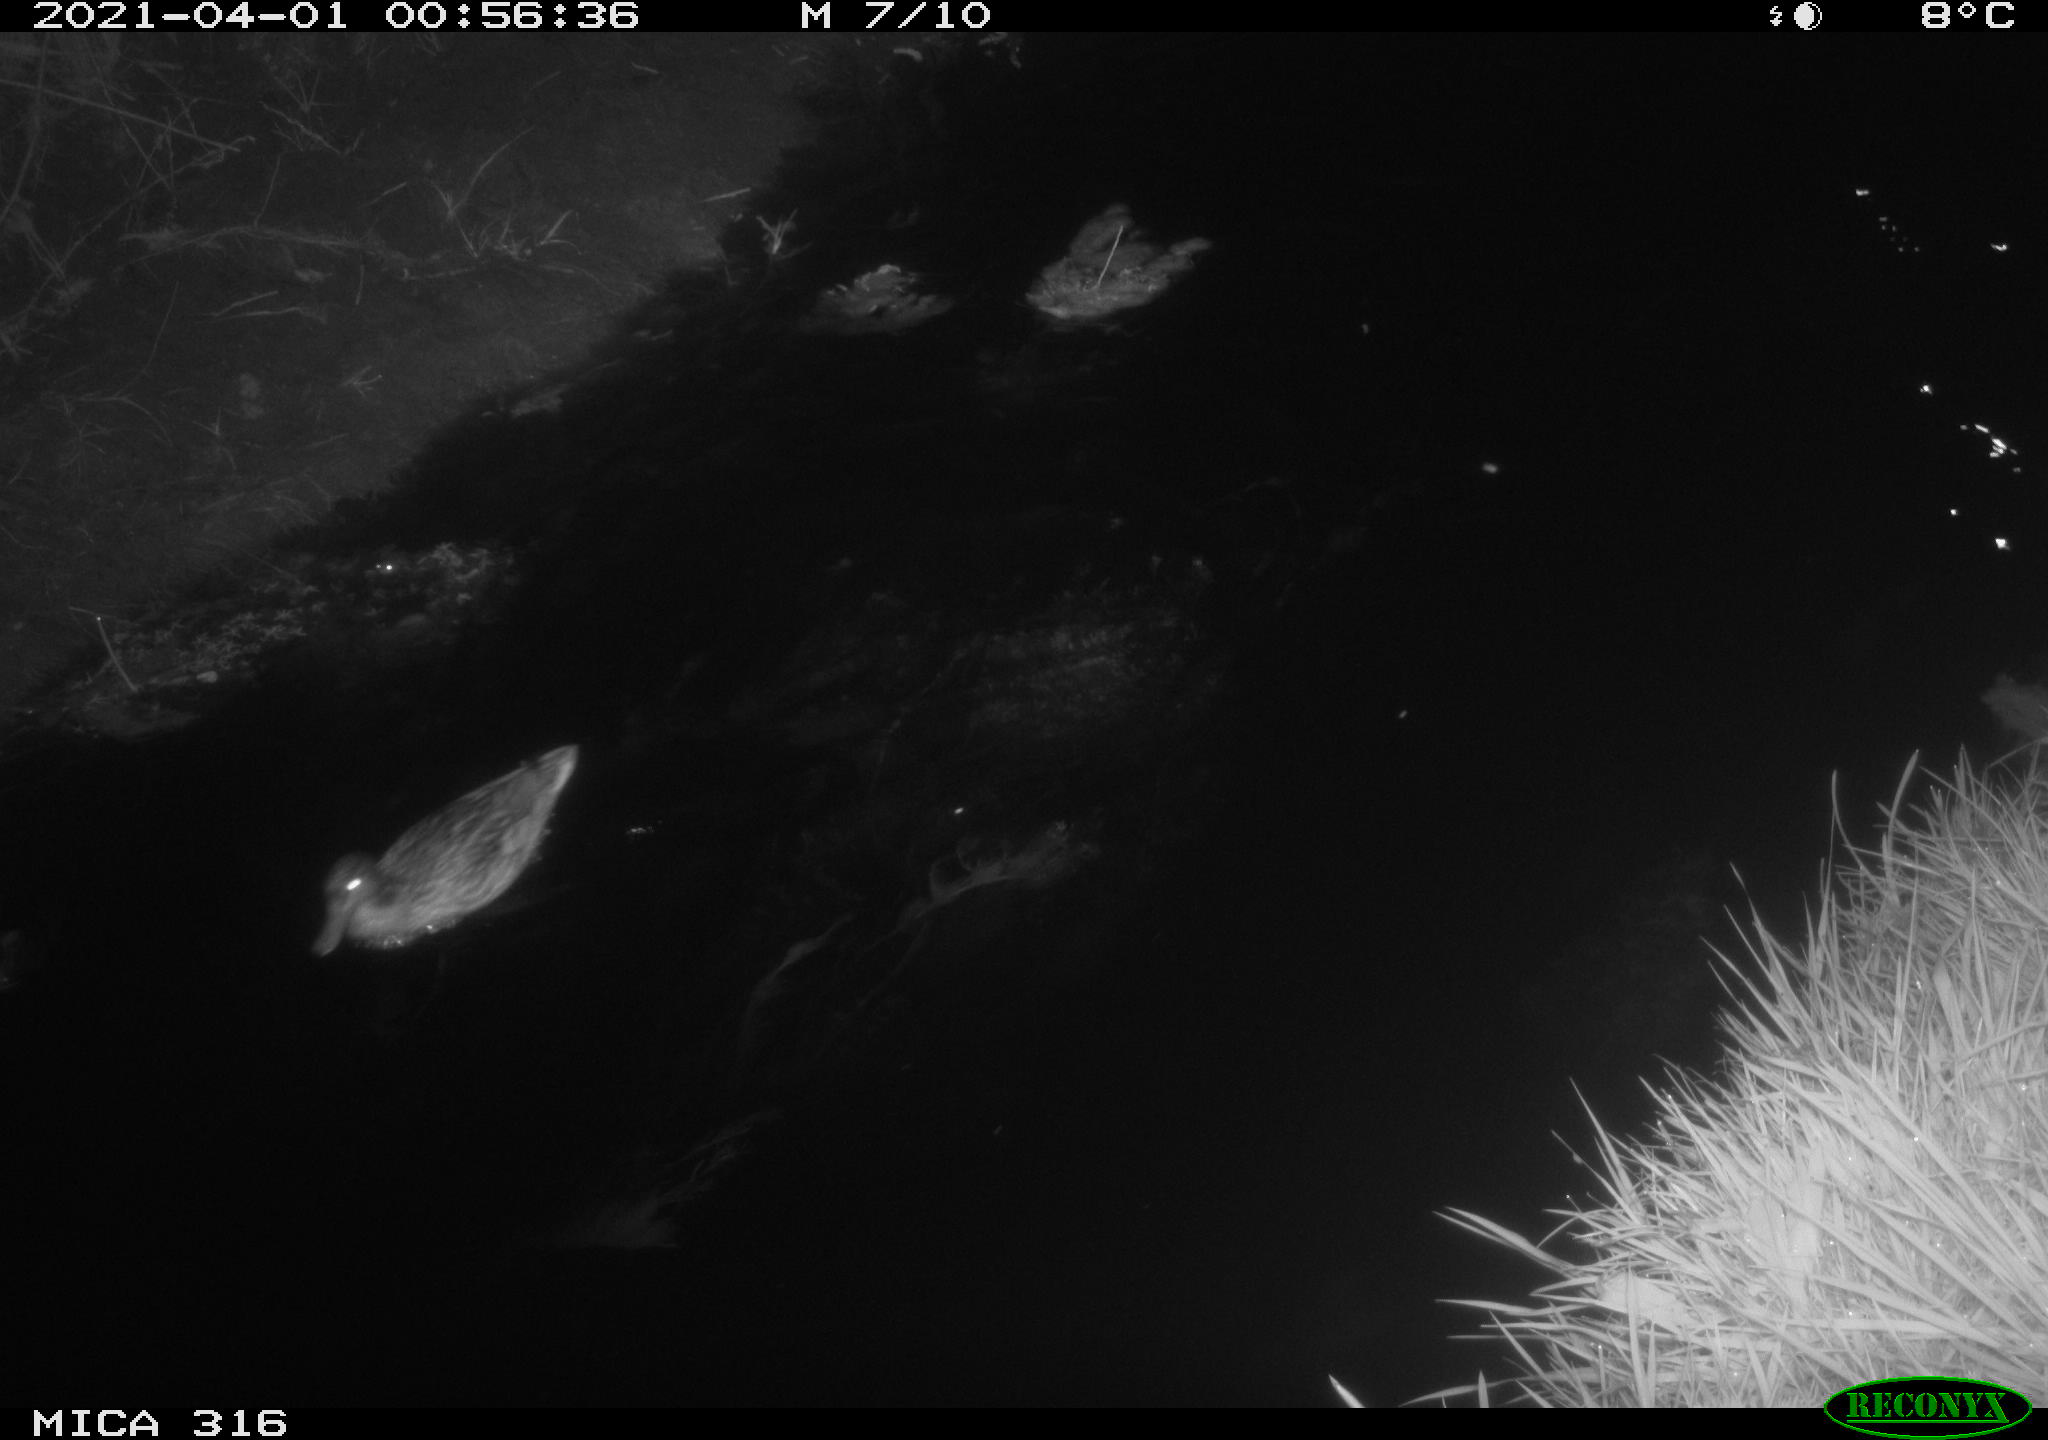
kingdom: Animalia
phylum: Chordata
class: Aves
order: Gruiformes
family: Rallidae
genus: Gallinula
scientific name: Gallinula chloropus
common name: Common moorhen
